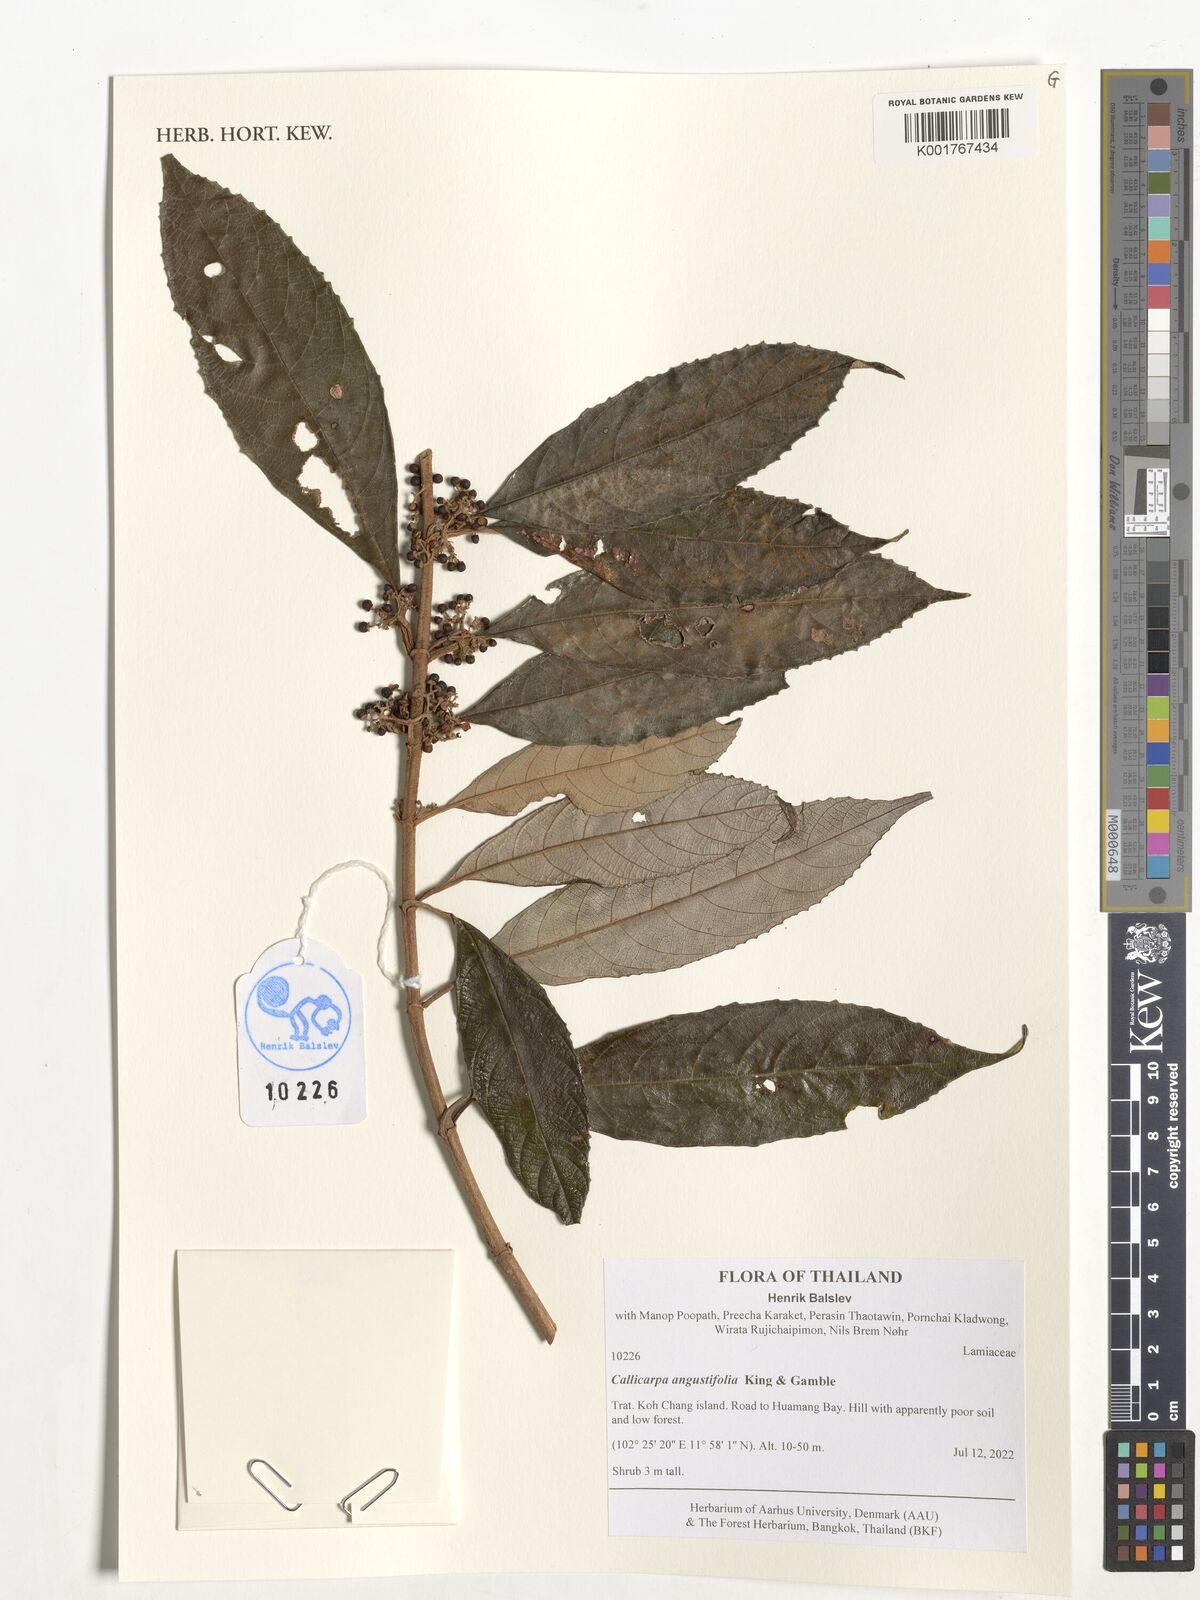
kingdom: Plantae
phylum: Tracheophyta
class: Magnoliopsida
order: Lamiales
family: Lamiaceae
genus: Callicarpa
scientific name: Callicarpa angustifolia
